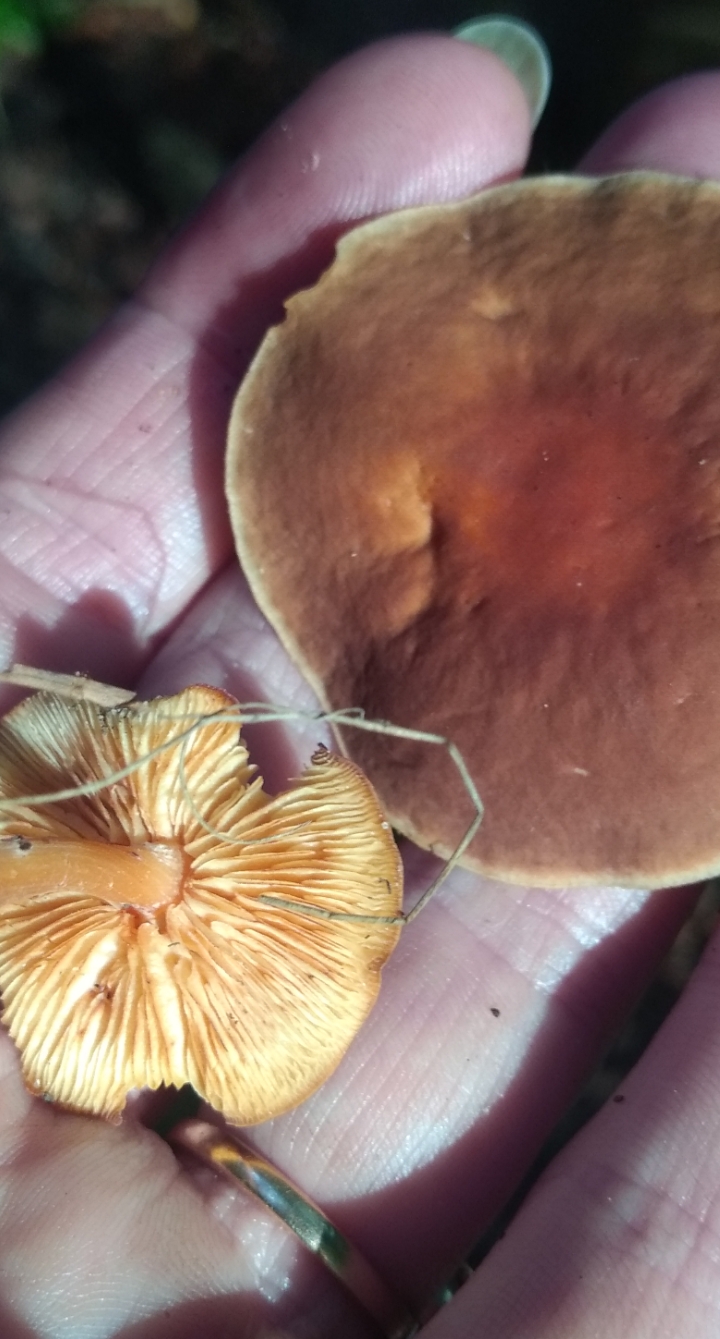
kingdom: Fungi
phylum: Basidiomycota
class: Agaricomycetes
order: Agaricales
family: Omphalotaceae
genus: Gymnopus
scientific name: Gymnopus ocior
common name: mørk fladhat
